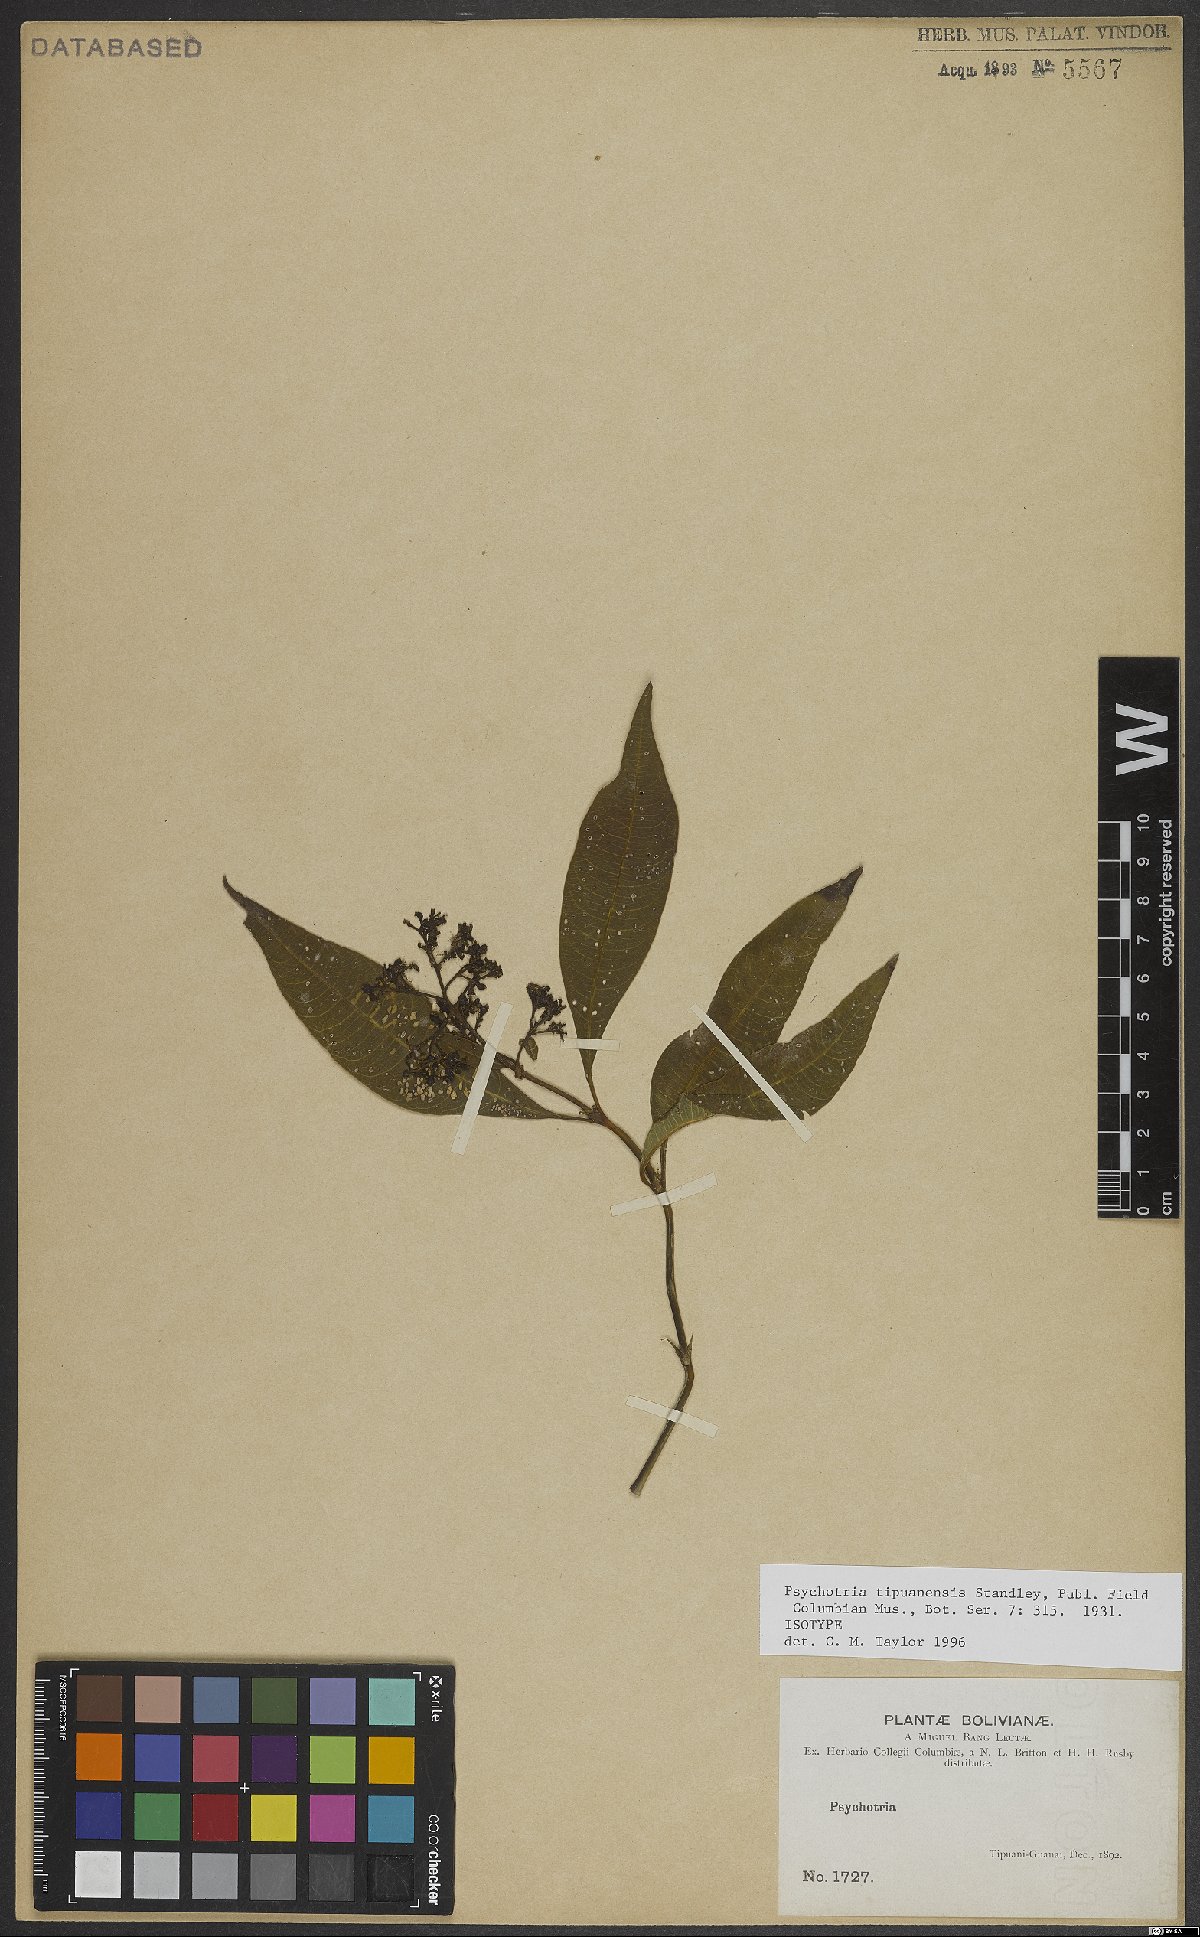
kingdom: Plantae
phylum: Tracheophyta
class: Magnoliopsida
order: Gentianales
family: Rubiaceae
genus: Palicourea
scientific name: Palicourea tristis
